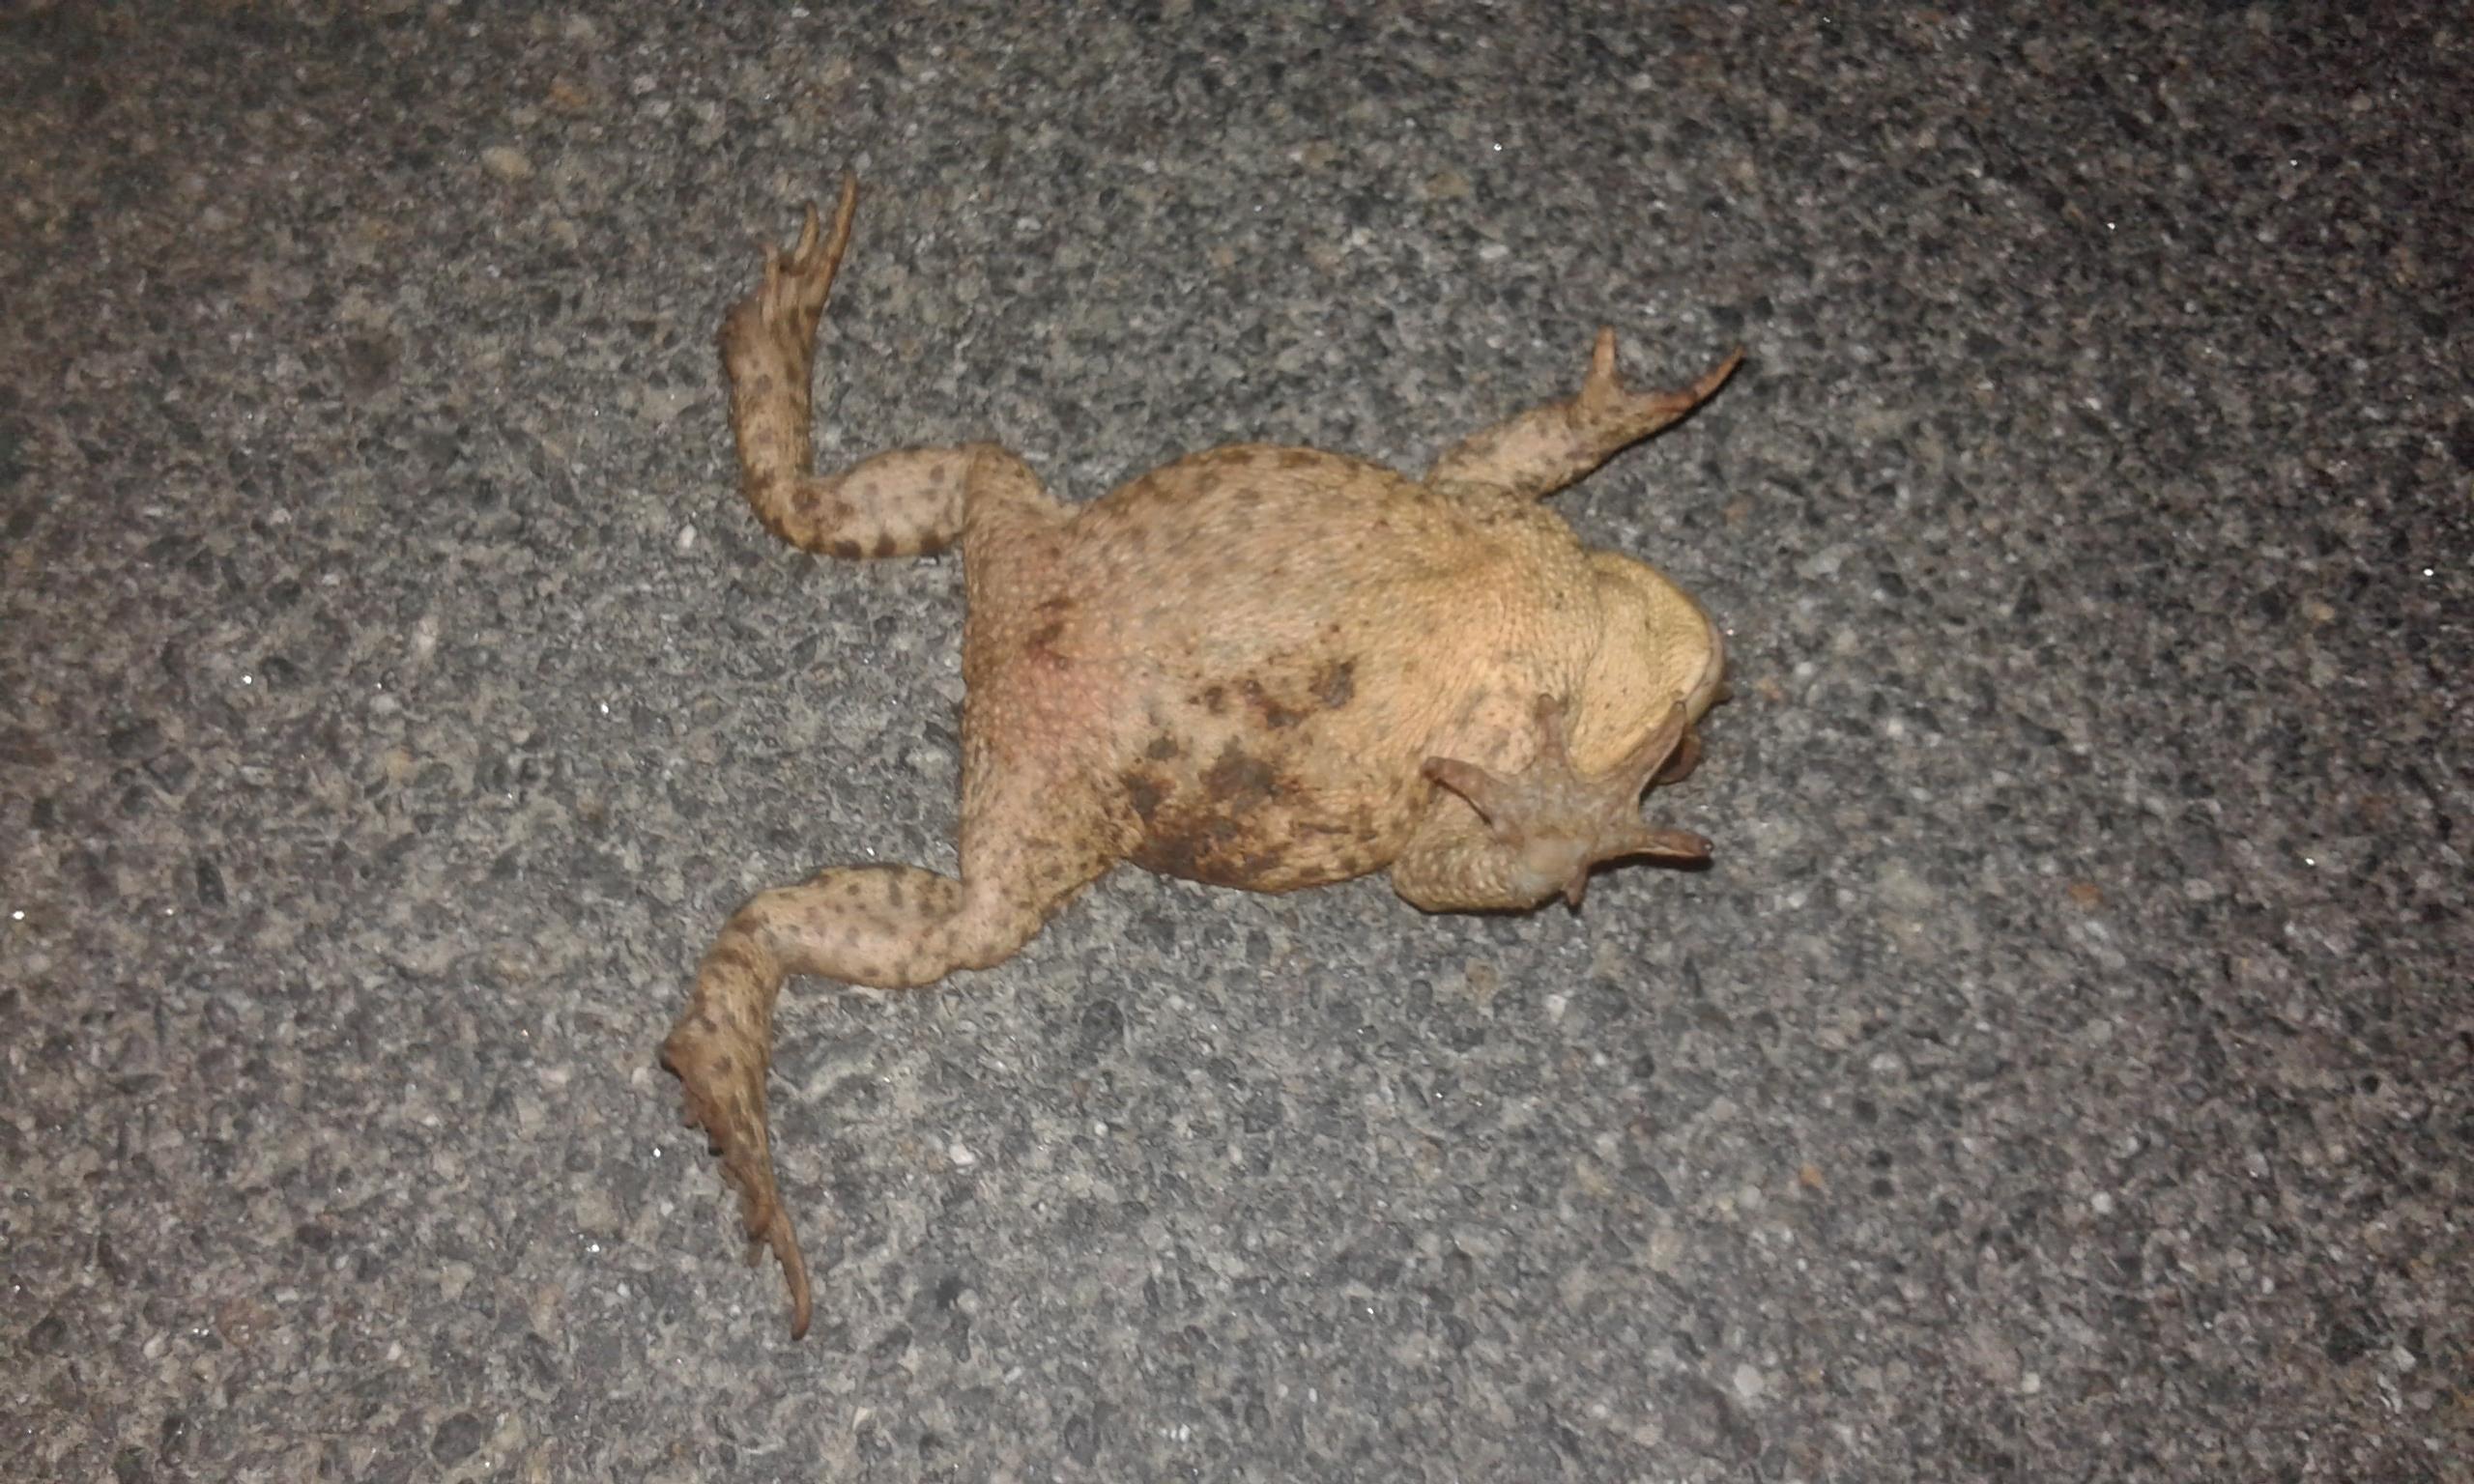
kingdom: Animalia
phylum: Chordata
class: Amphibia
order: Anura
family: Bufonidae
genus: Bufo
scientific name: Bufo bufo
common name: Common toad
